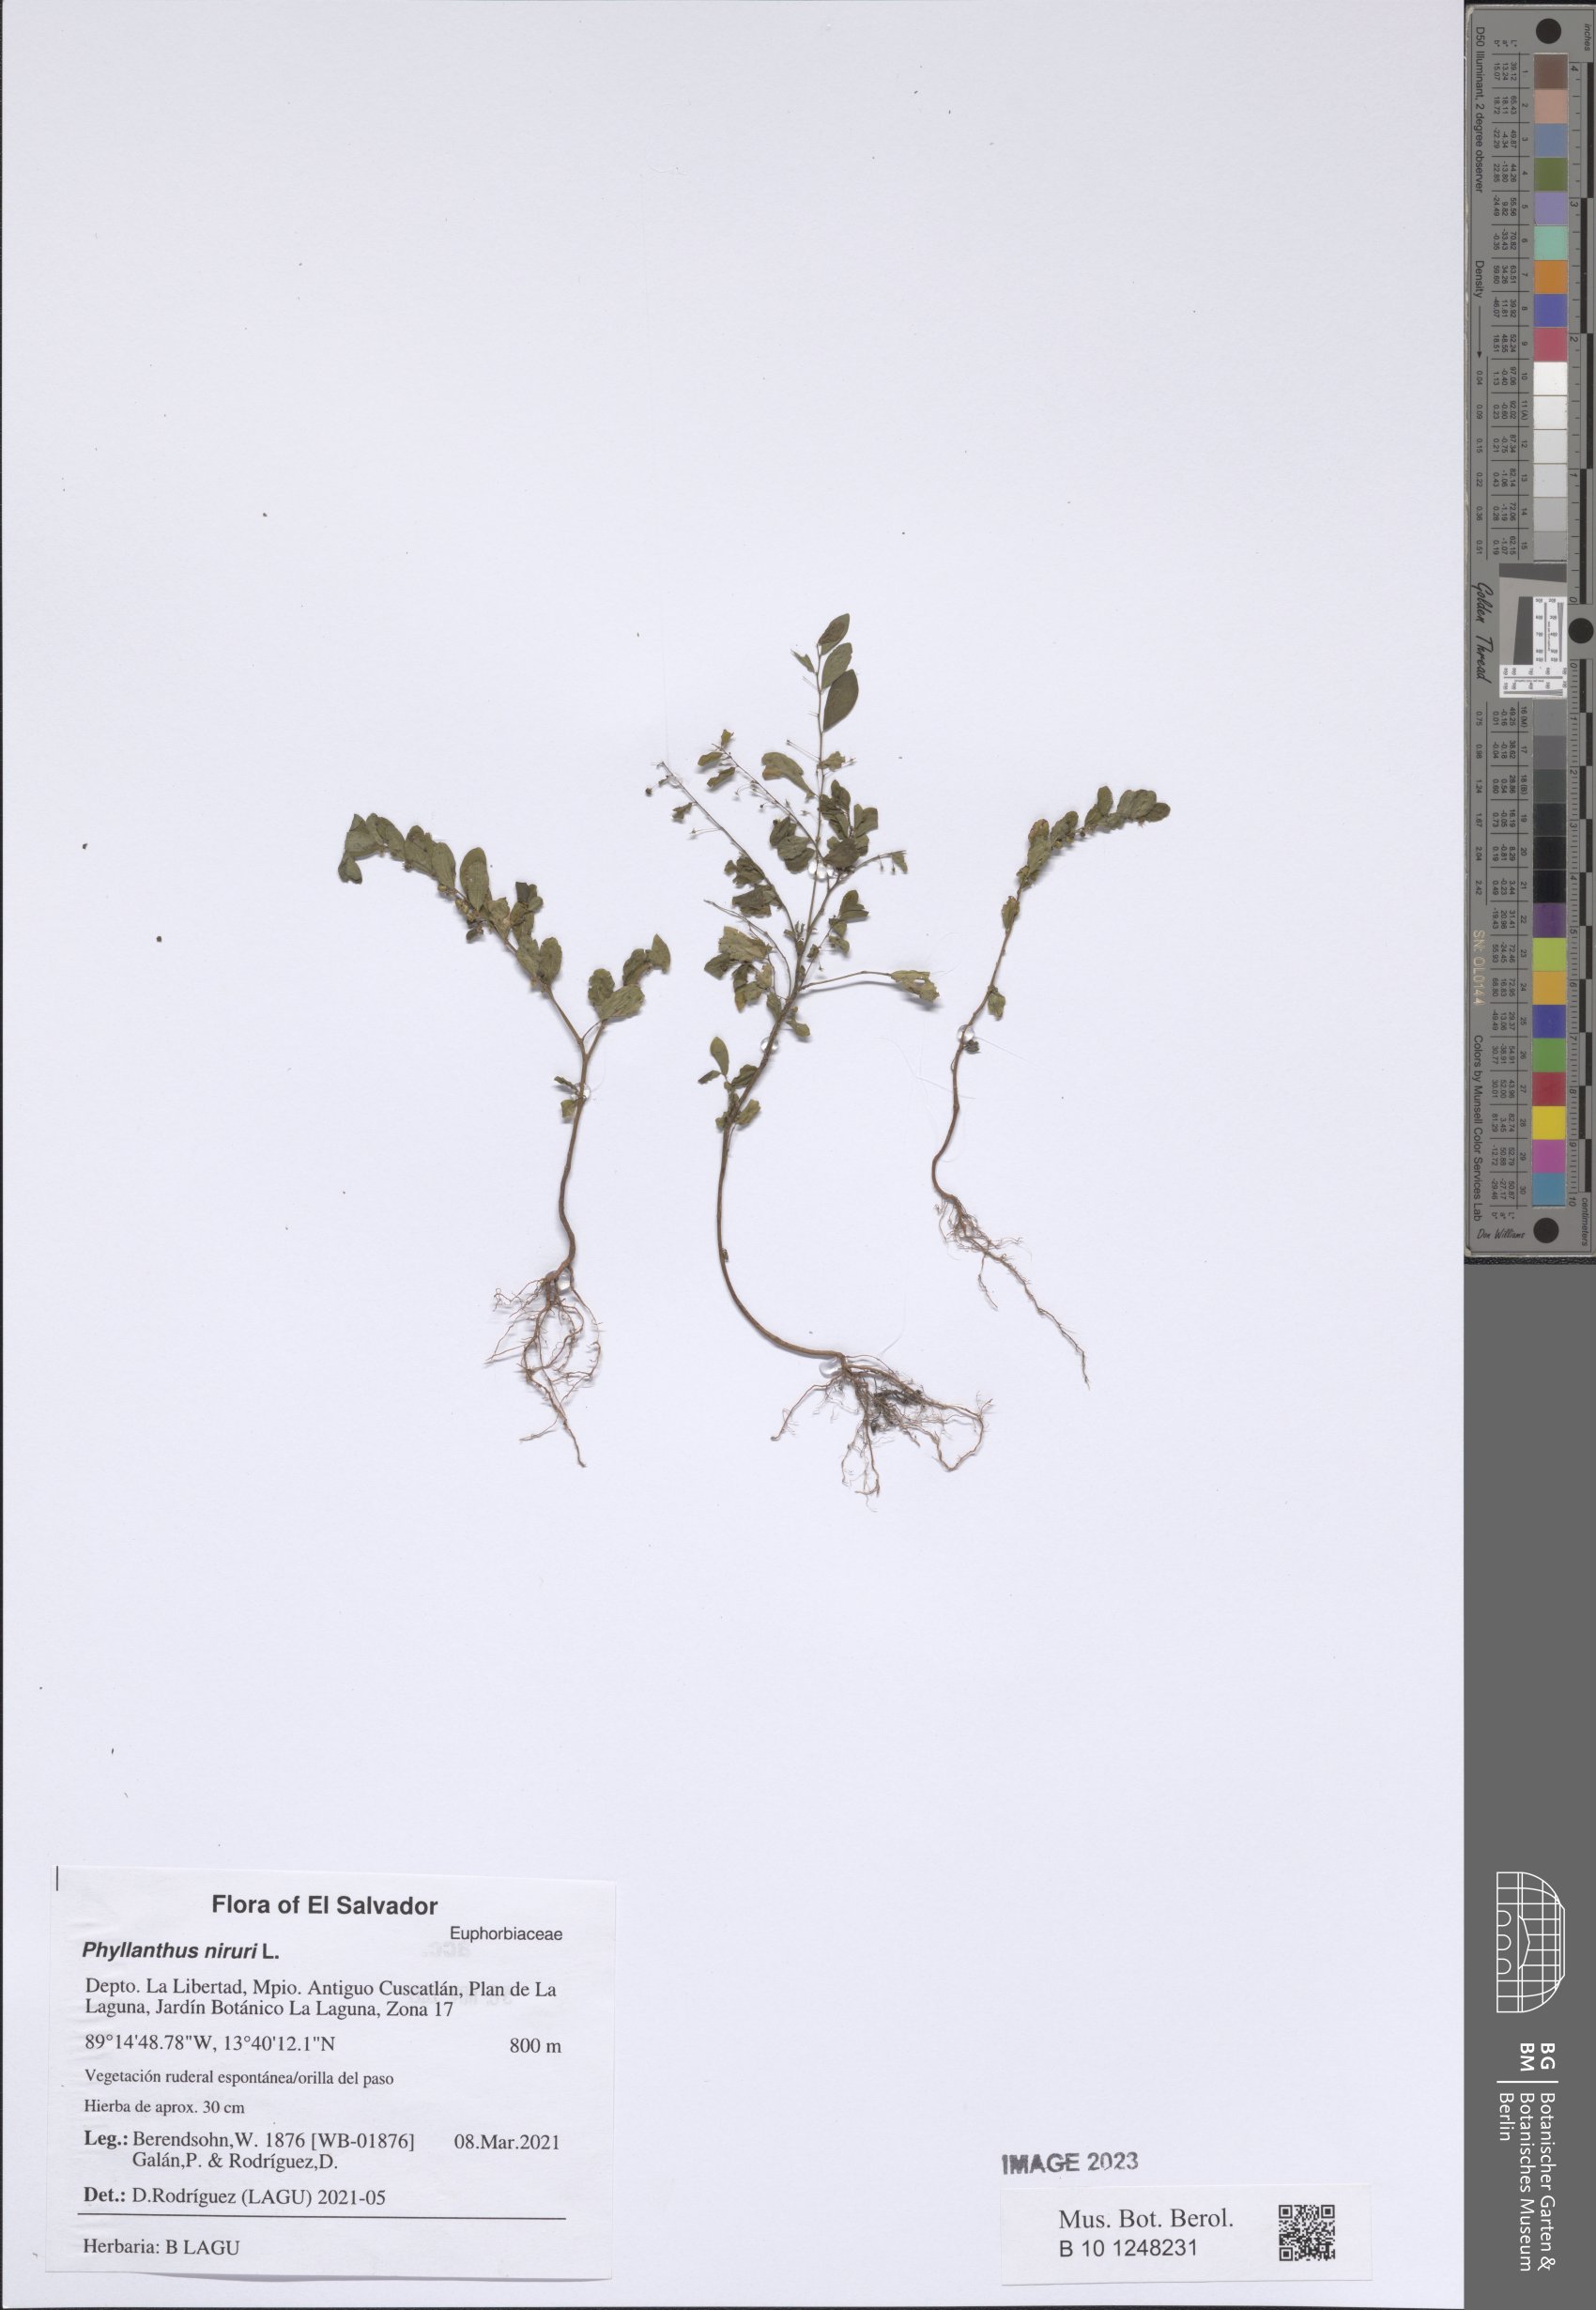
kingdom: Plantae
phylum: Tracheophyta
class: Magnoliopsida
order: Malpighiales
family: Phyllanthaceae
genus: Phyllanthus
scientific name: Phyllanthus niruri
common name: Niruri
